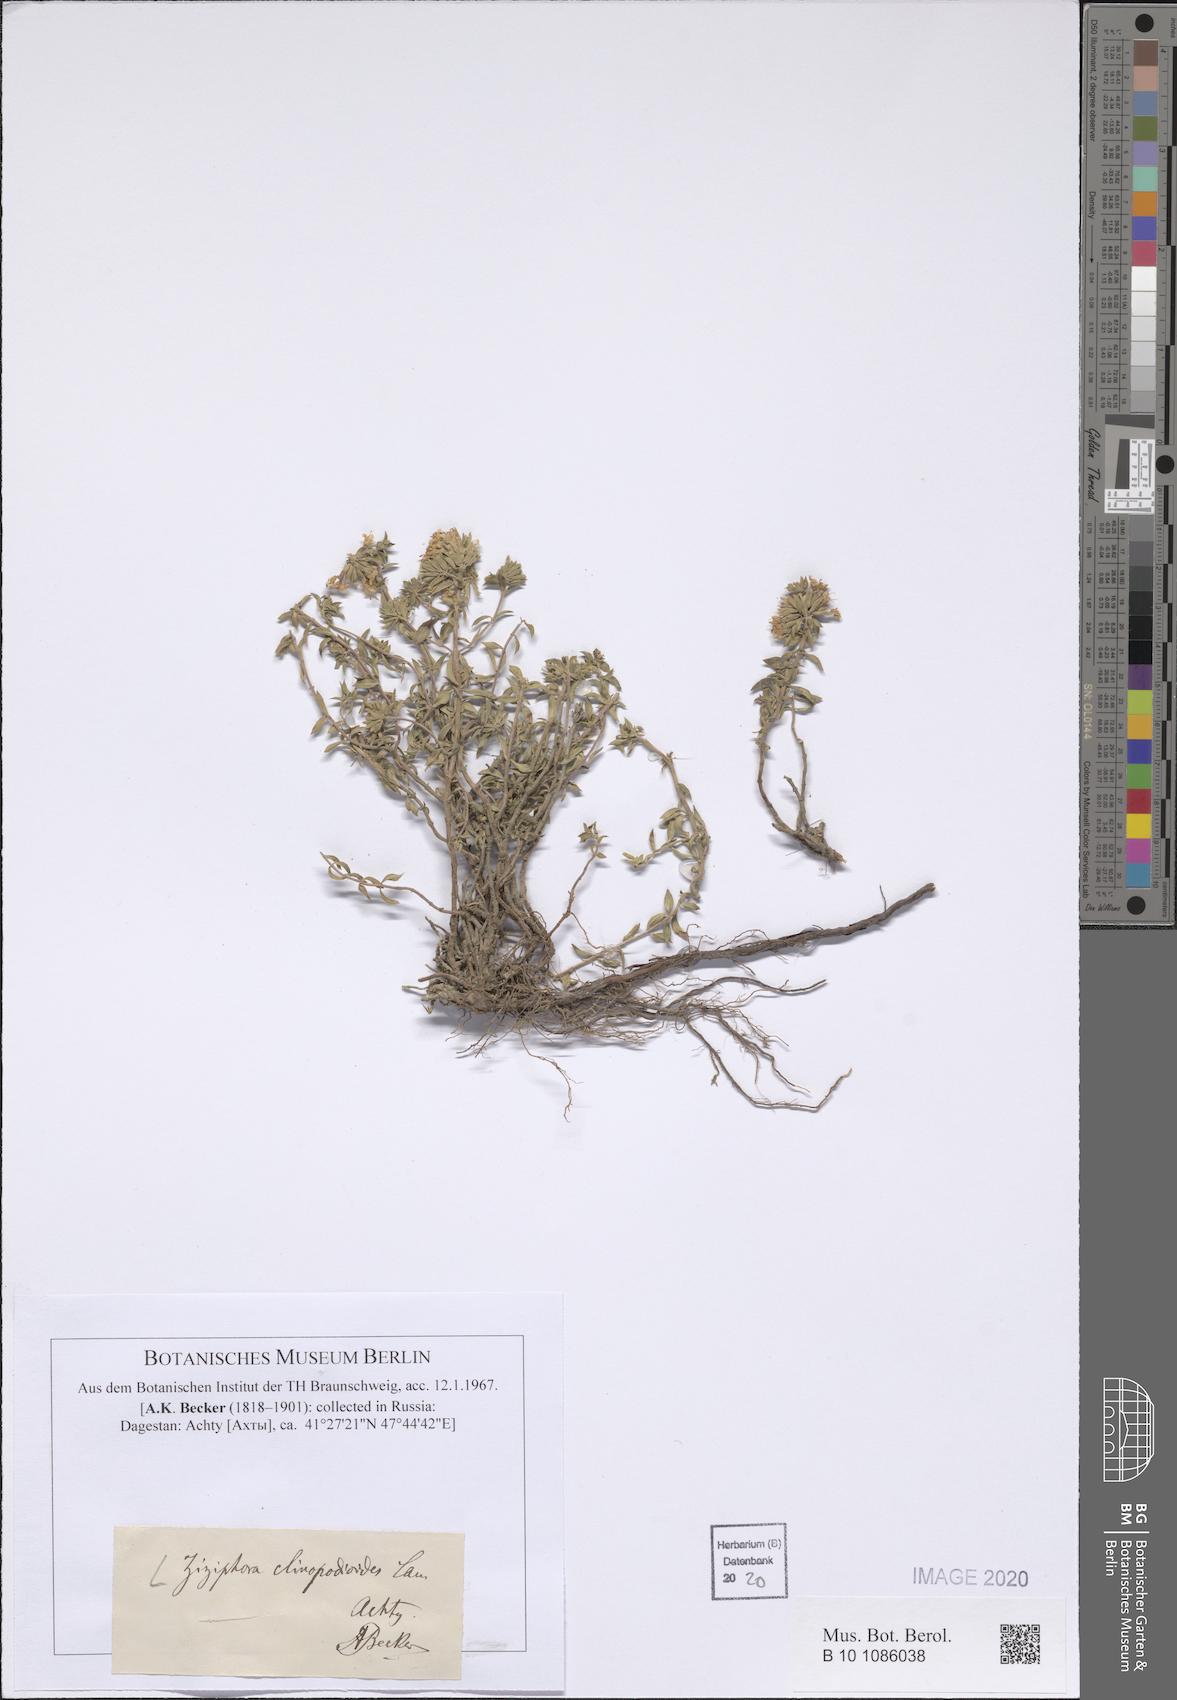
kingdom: Plantae
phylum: Tracheophyta
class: Magnoliopsida
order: Lamiales
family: Lamiaceae
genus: Ziziphora
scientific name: Ziziphora clinopodioides
